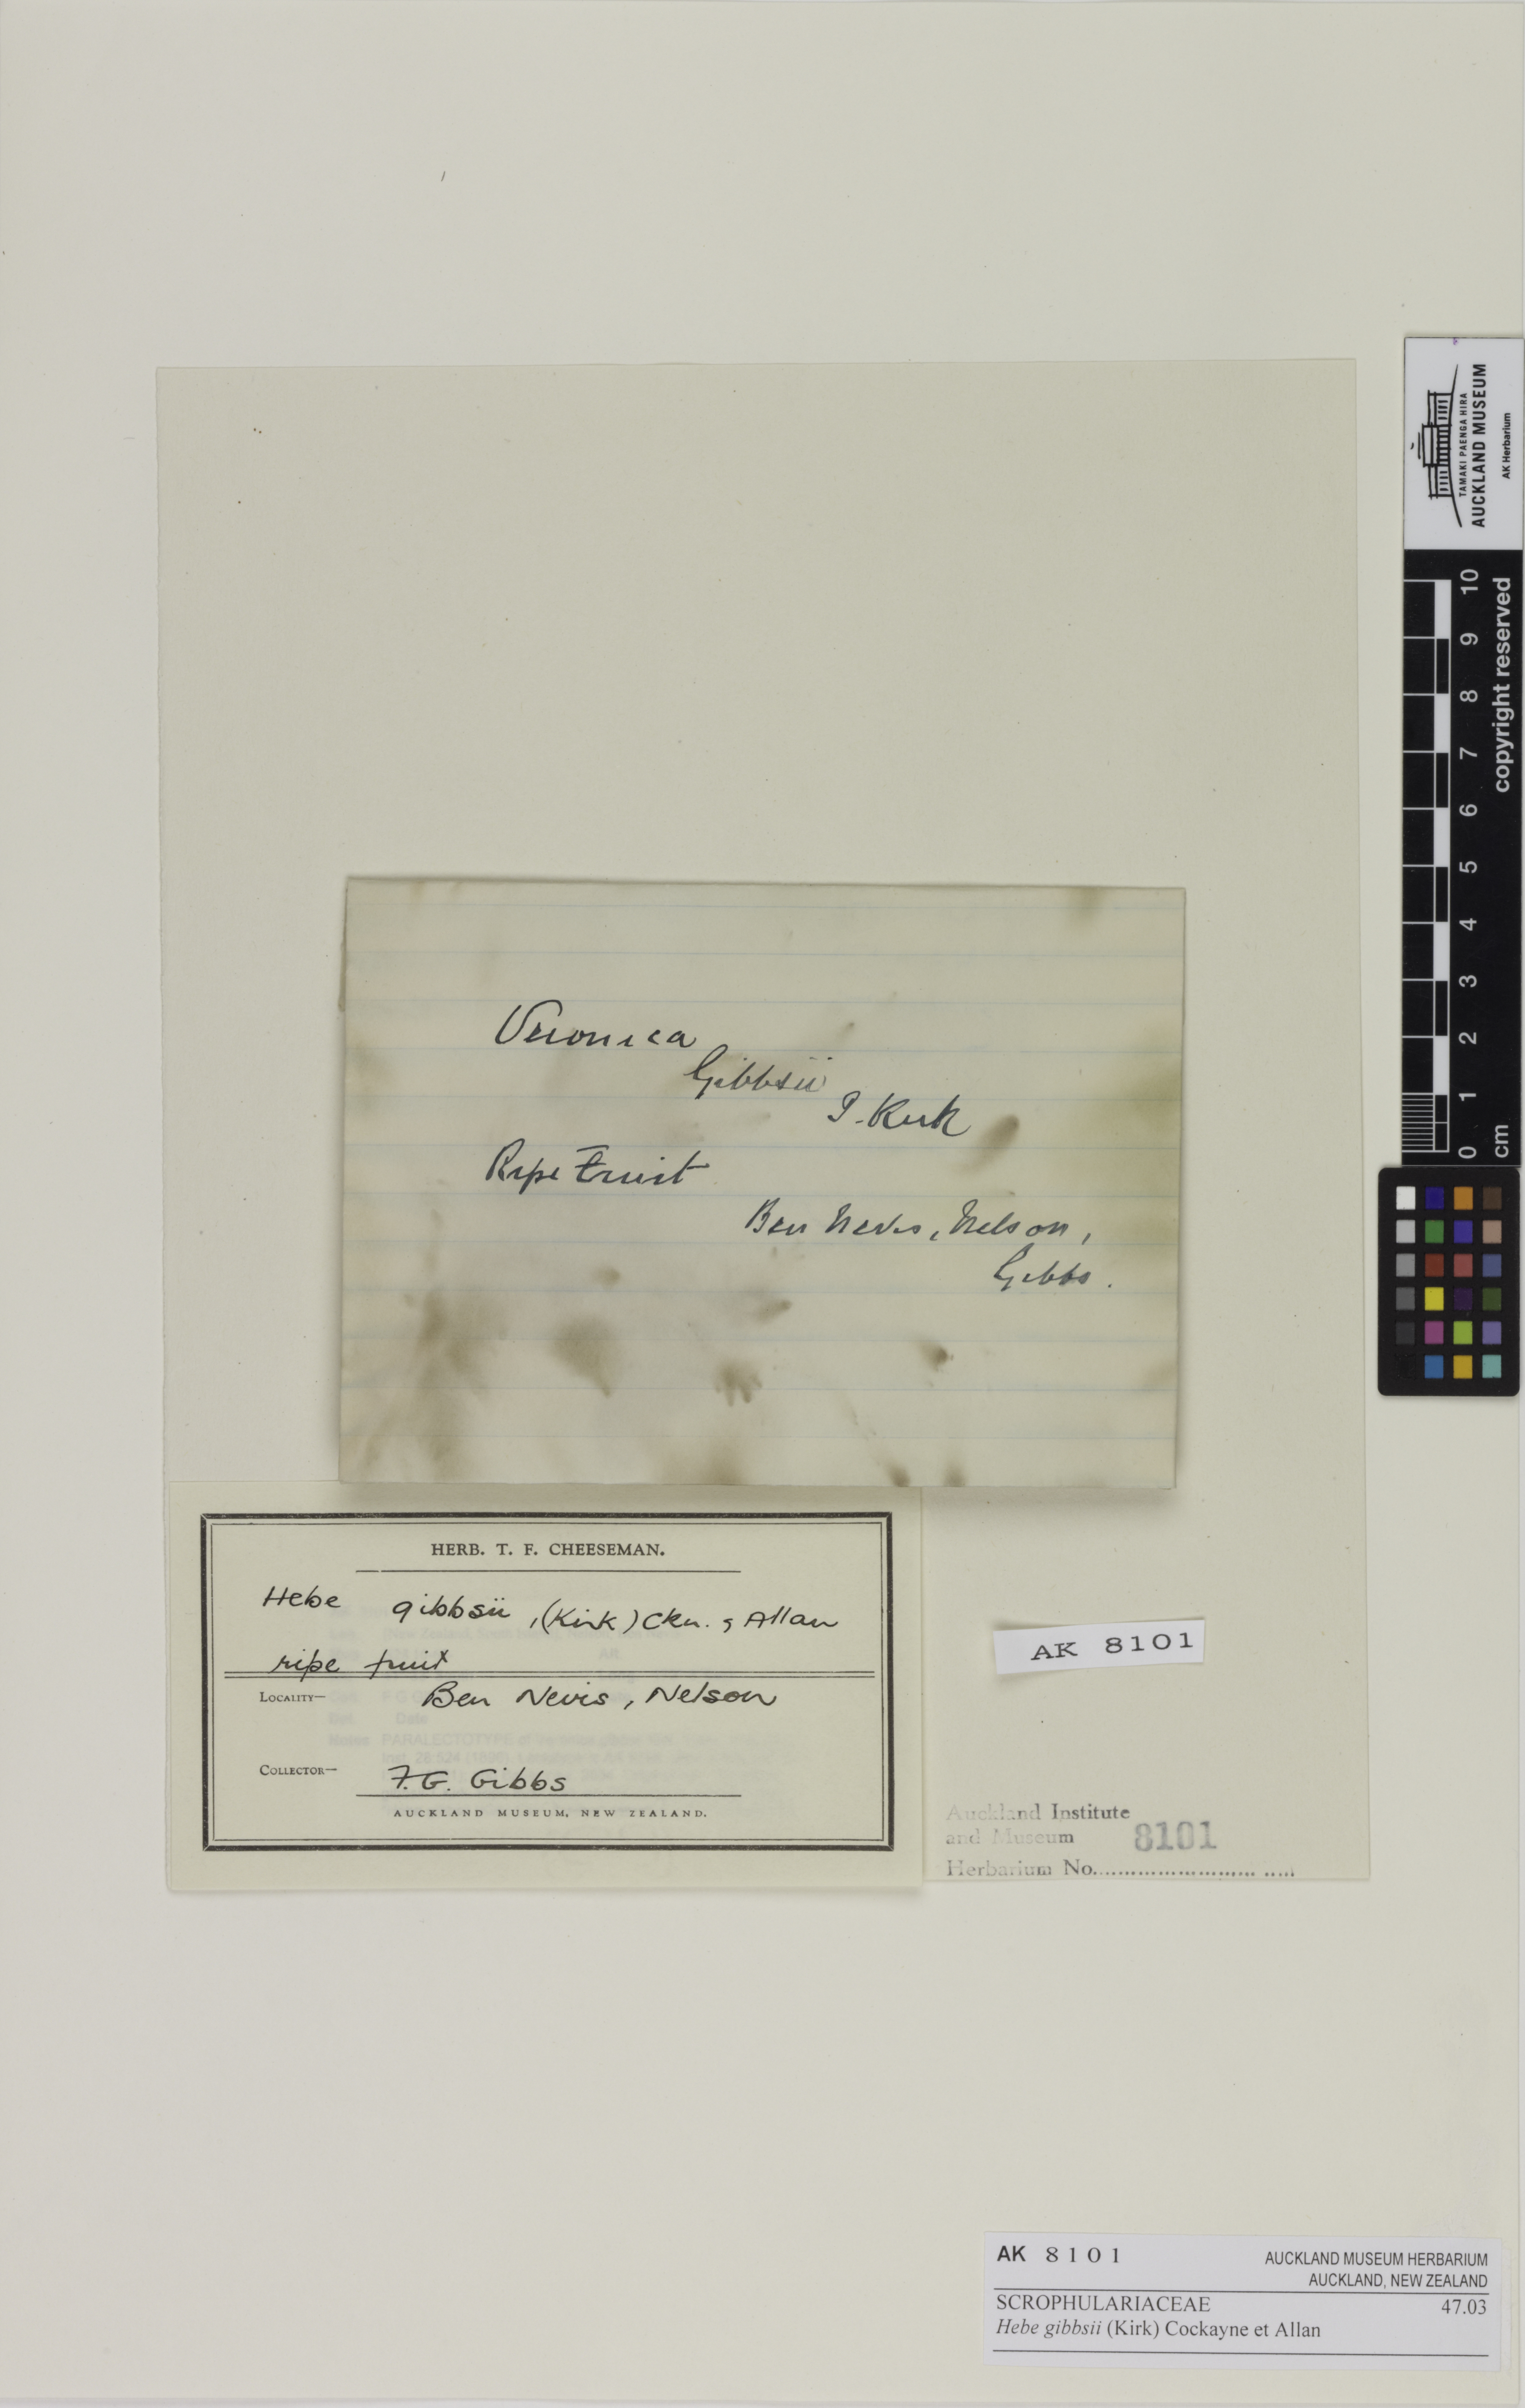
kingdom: Plantae
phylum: Tracheophyta
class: Magnoliopsida
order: Lamiales
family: Plantaginaceae
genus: Veronica
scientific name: Veronica gibbsii
